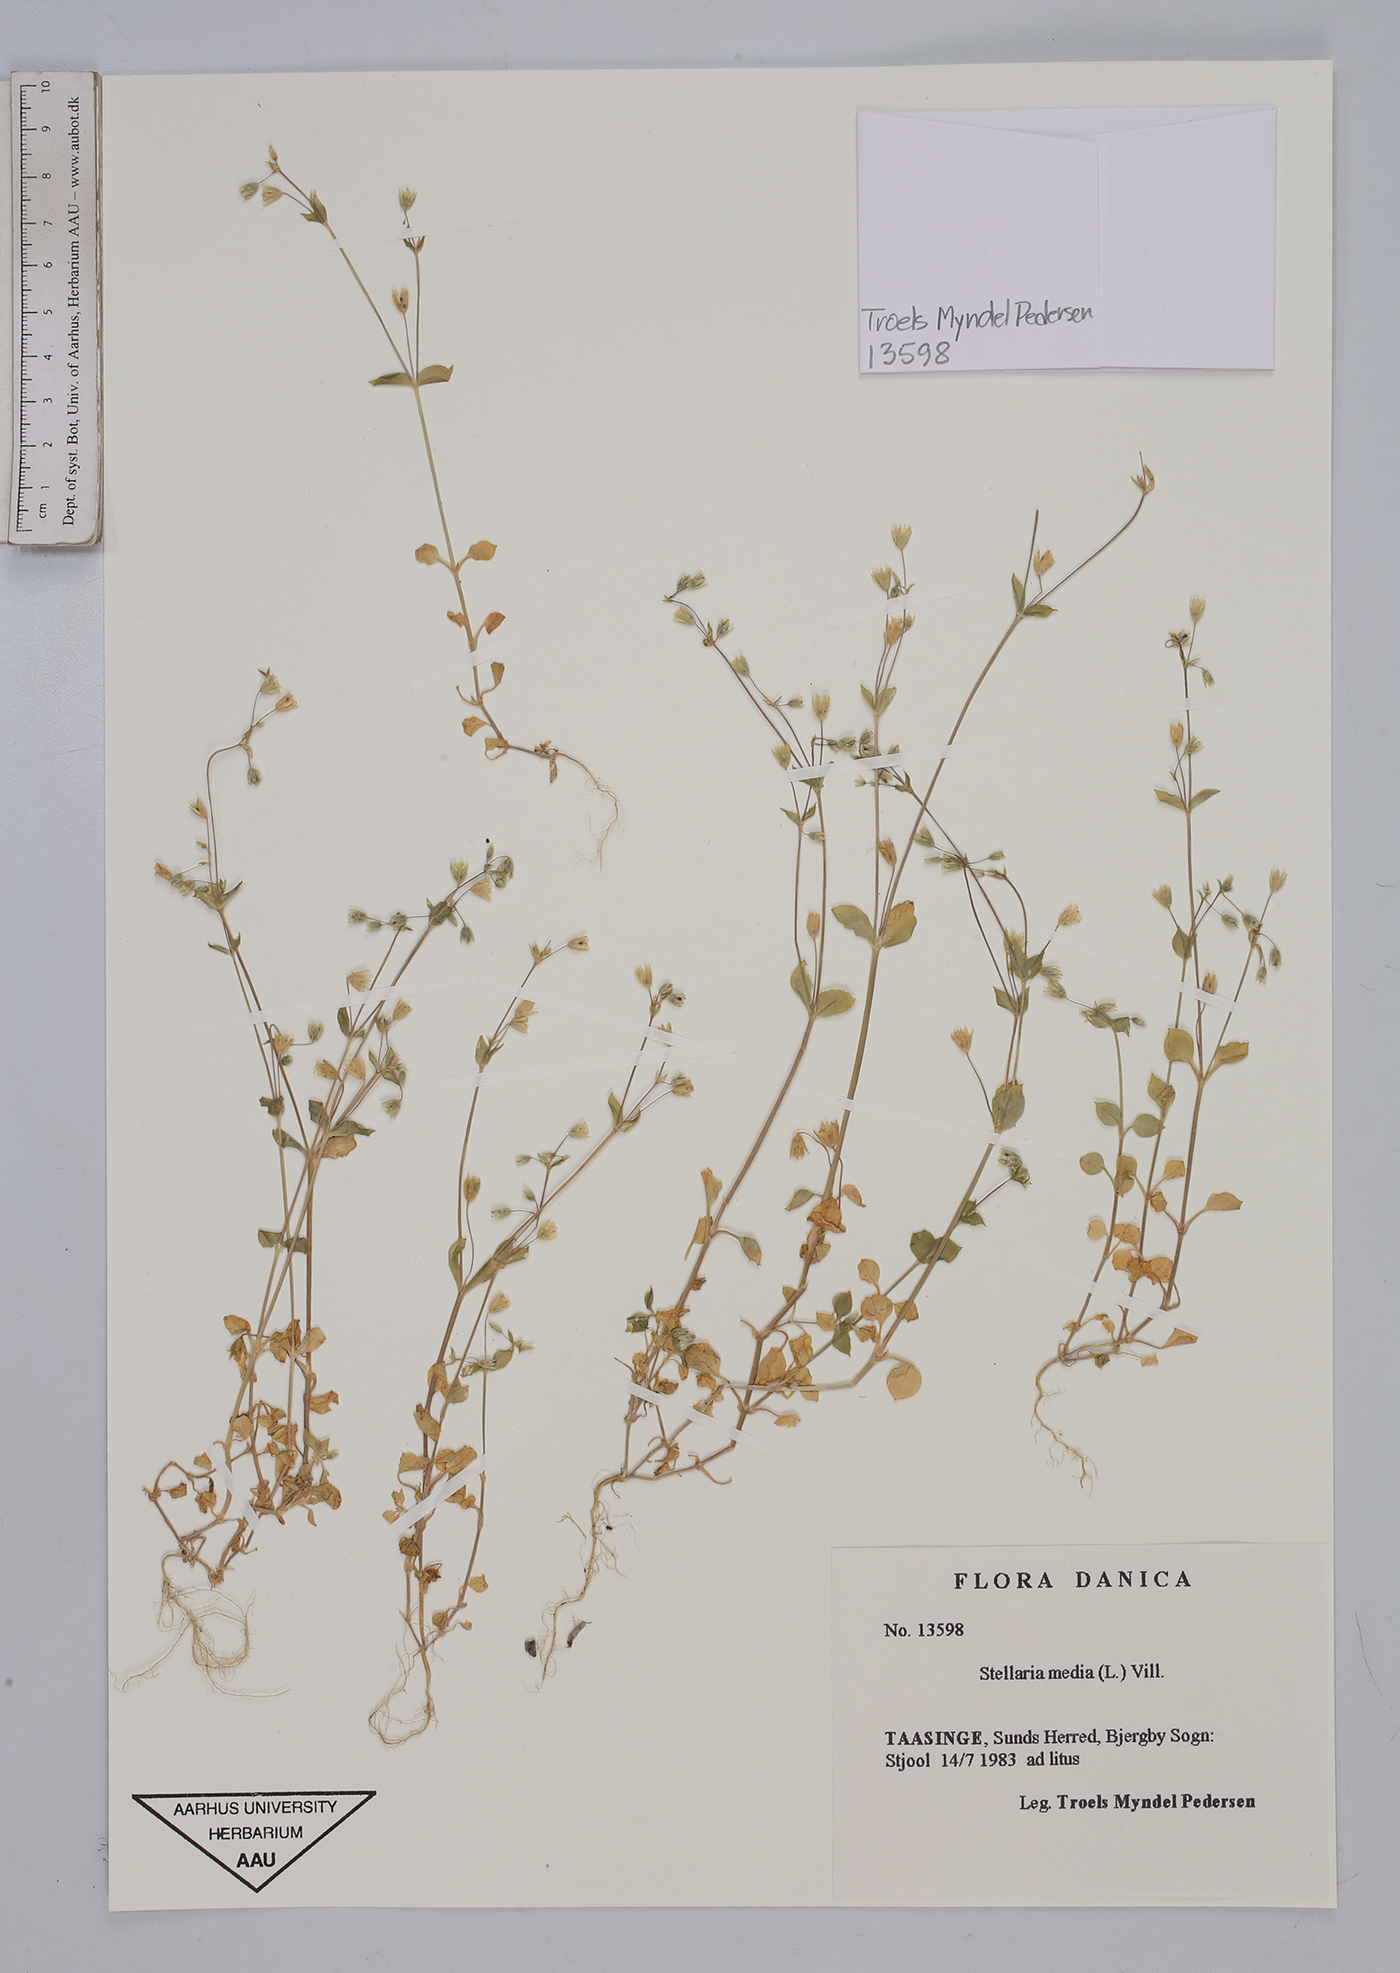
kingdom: Plantae
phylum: Tracheophyta
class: Magnoliopsida
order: Caryophyllales
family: Caryophyllaceae
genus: Stellaria
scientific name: Stellaria media
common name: Common chickweed
